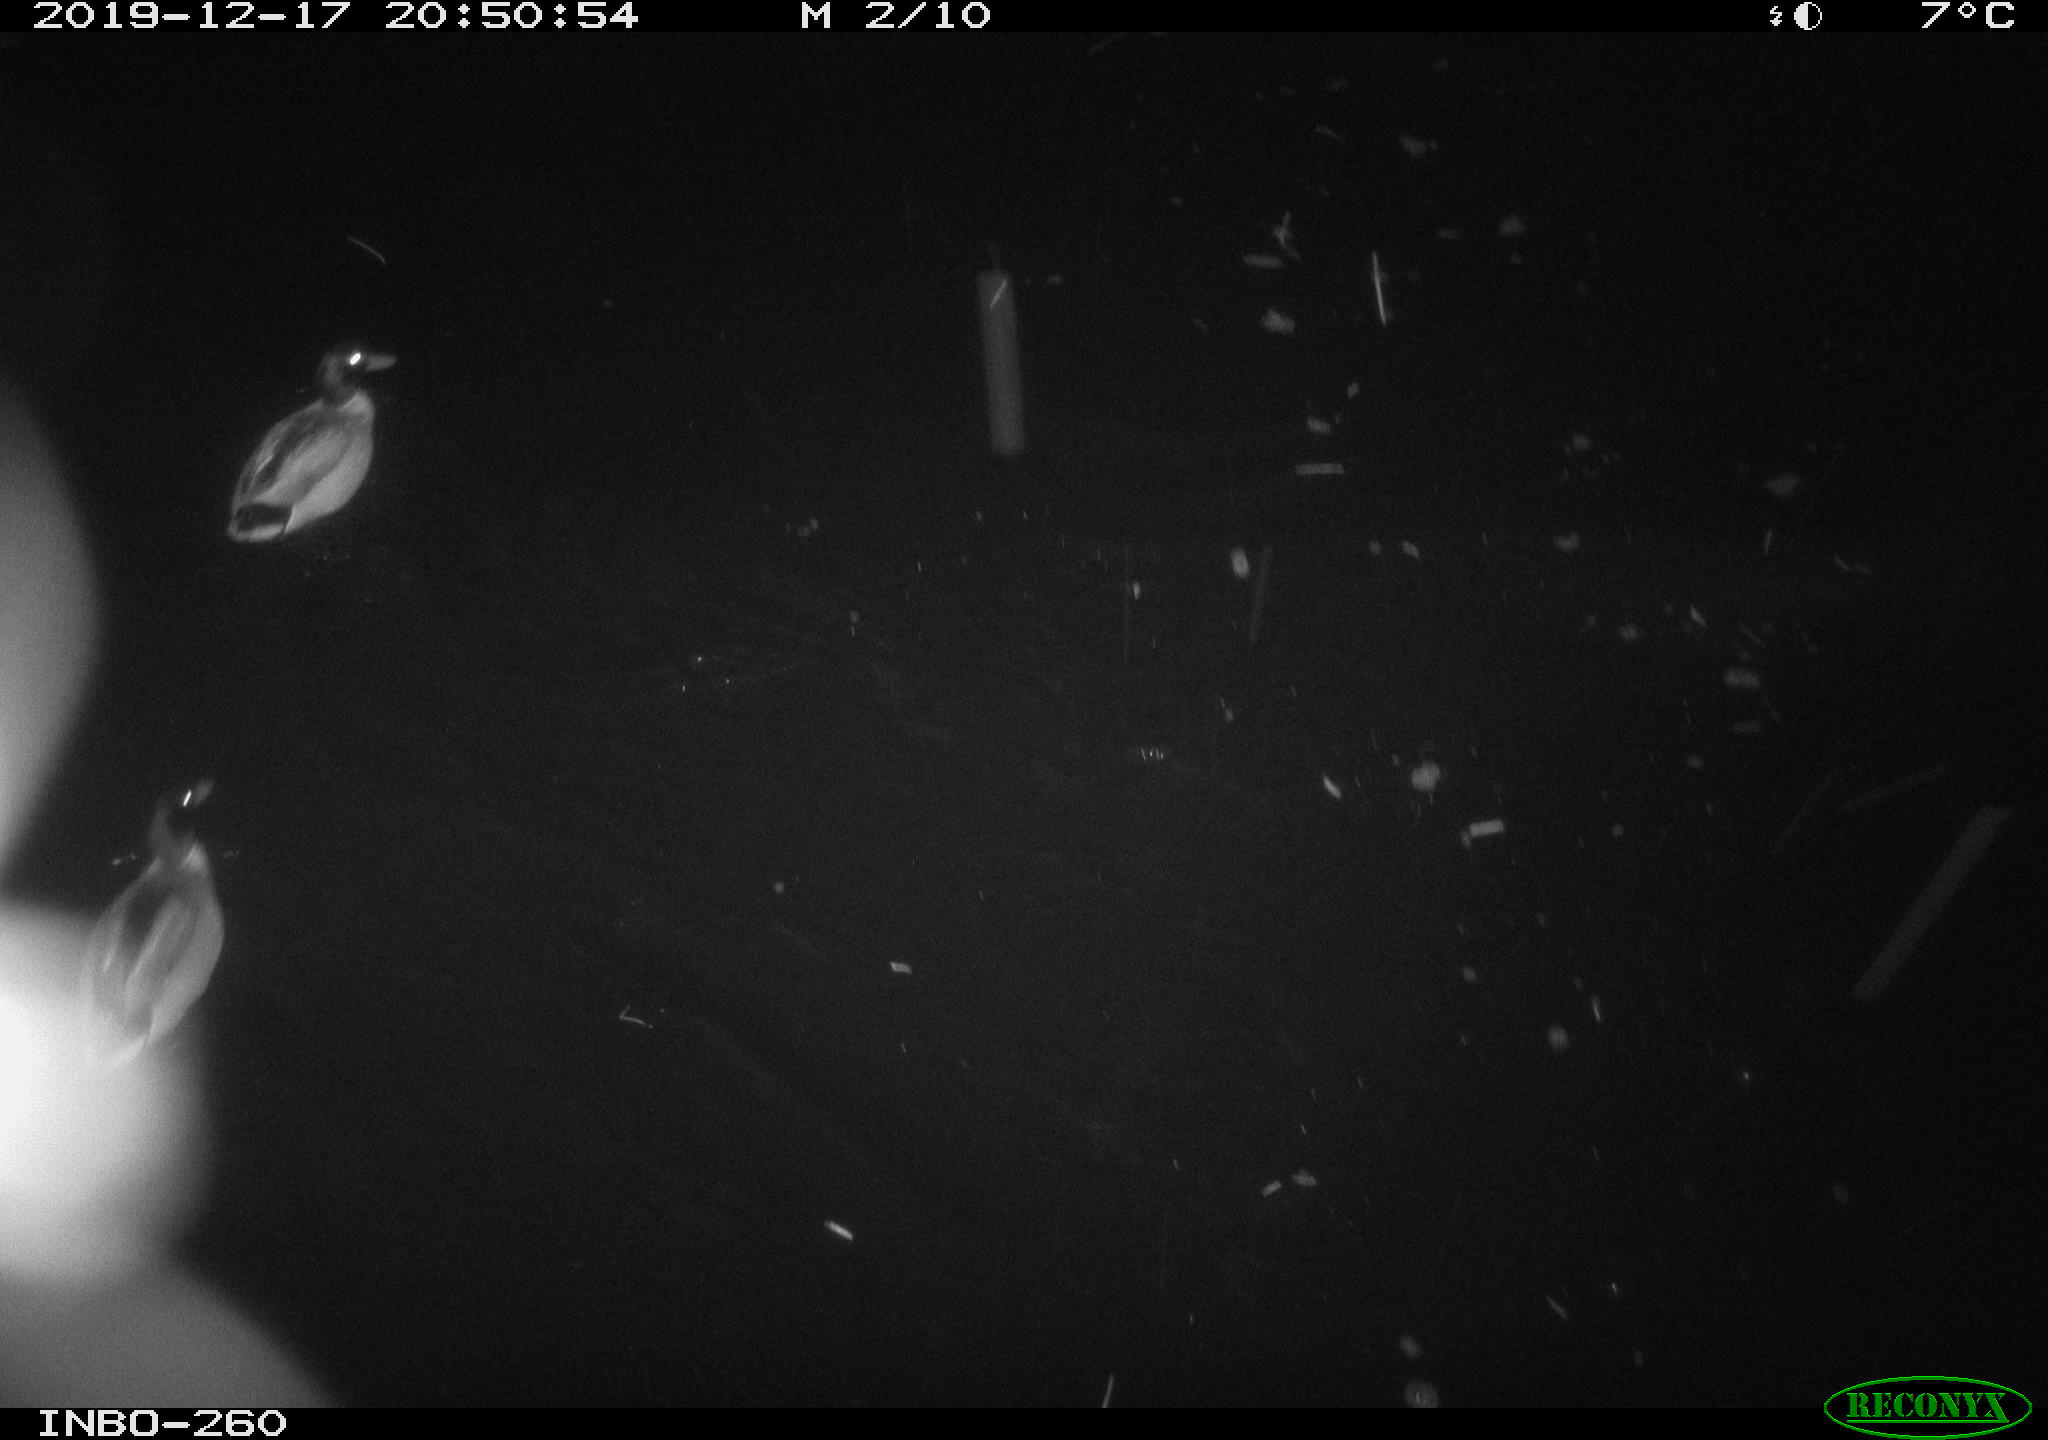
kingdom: Animalia
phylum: Chordata
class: Aves
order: Anseriformes
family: Anatidae
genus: Anas
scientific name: Anas platyrhynchos
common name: Mallard
